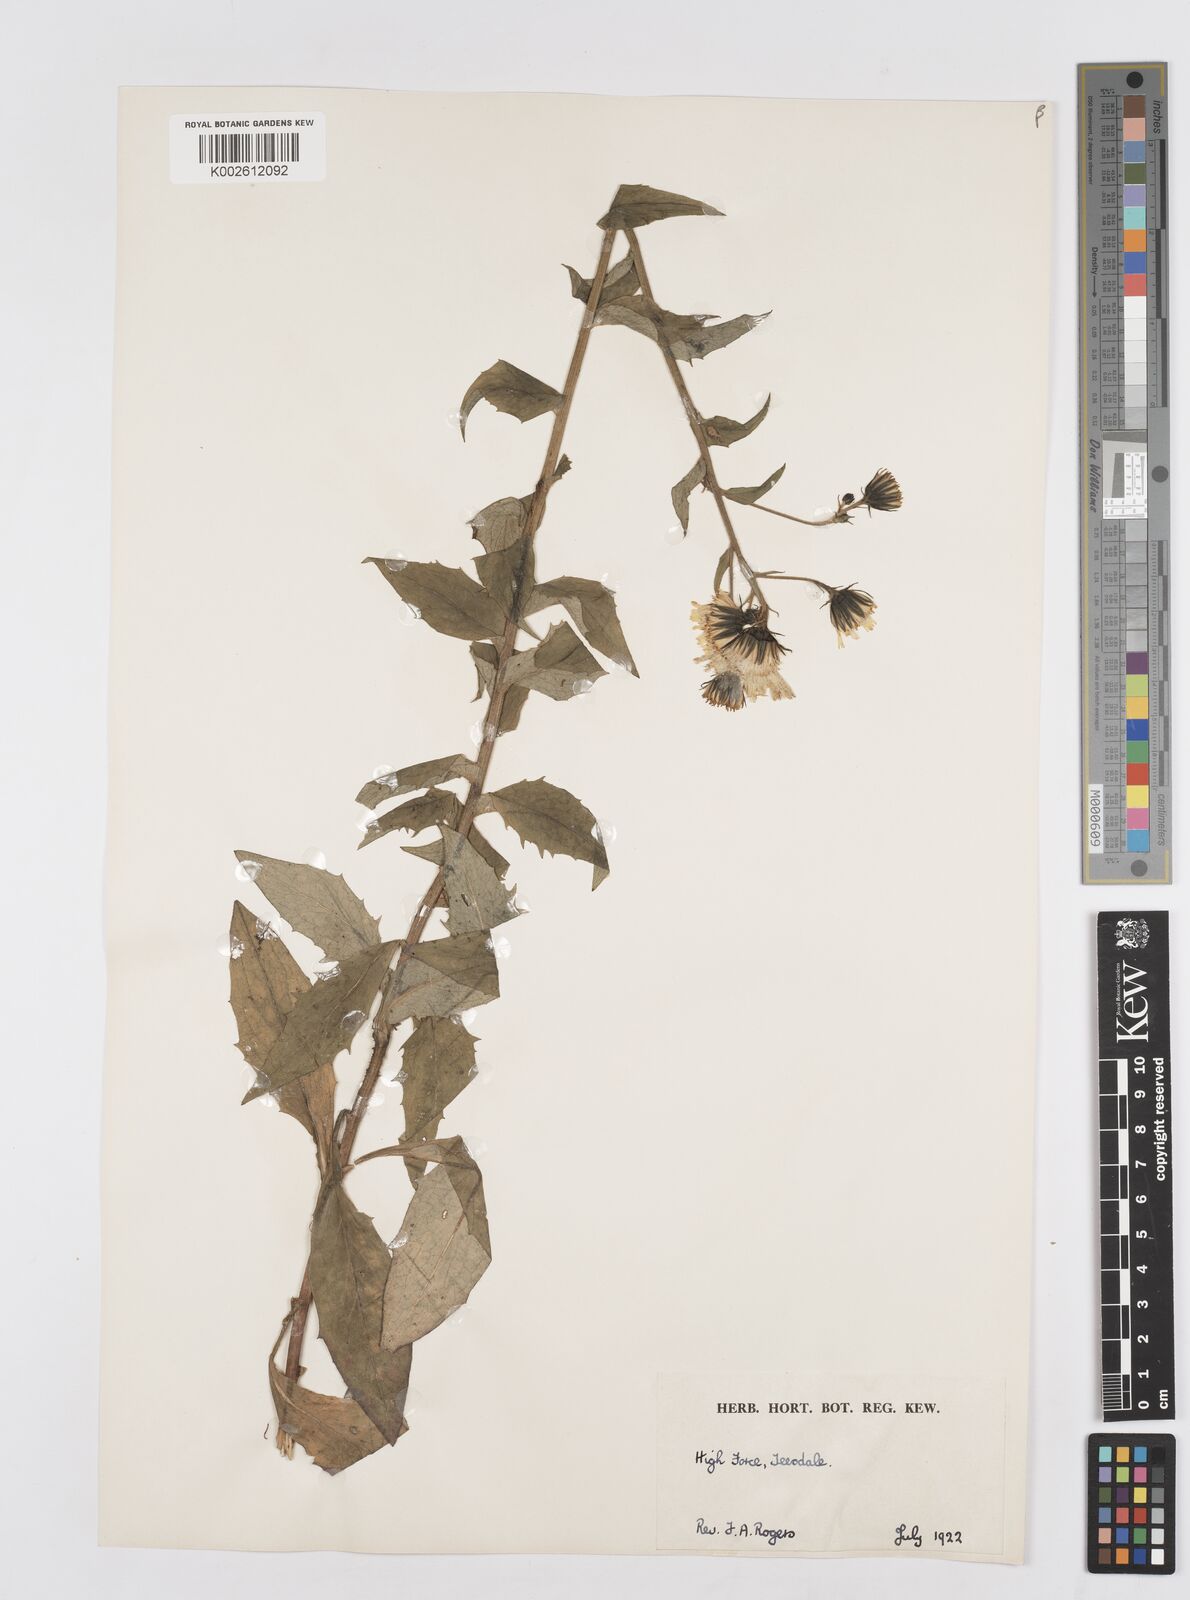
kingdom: Plantae
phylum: Tracheophyta
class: Magnoliopsida
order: Asterales
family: Asteraceae
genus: Hieracium
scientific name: Hieracium
